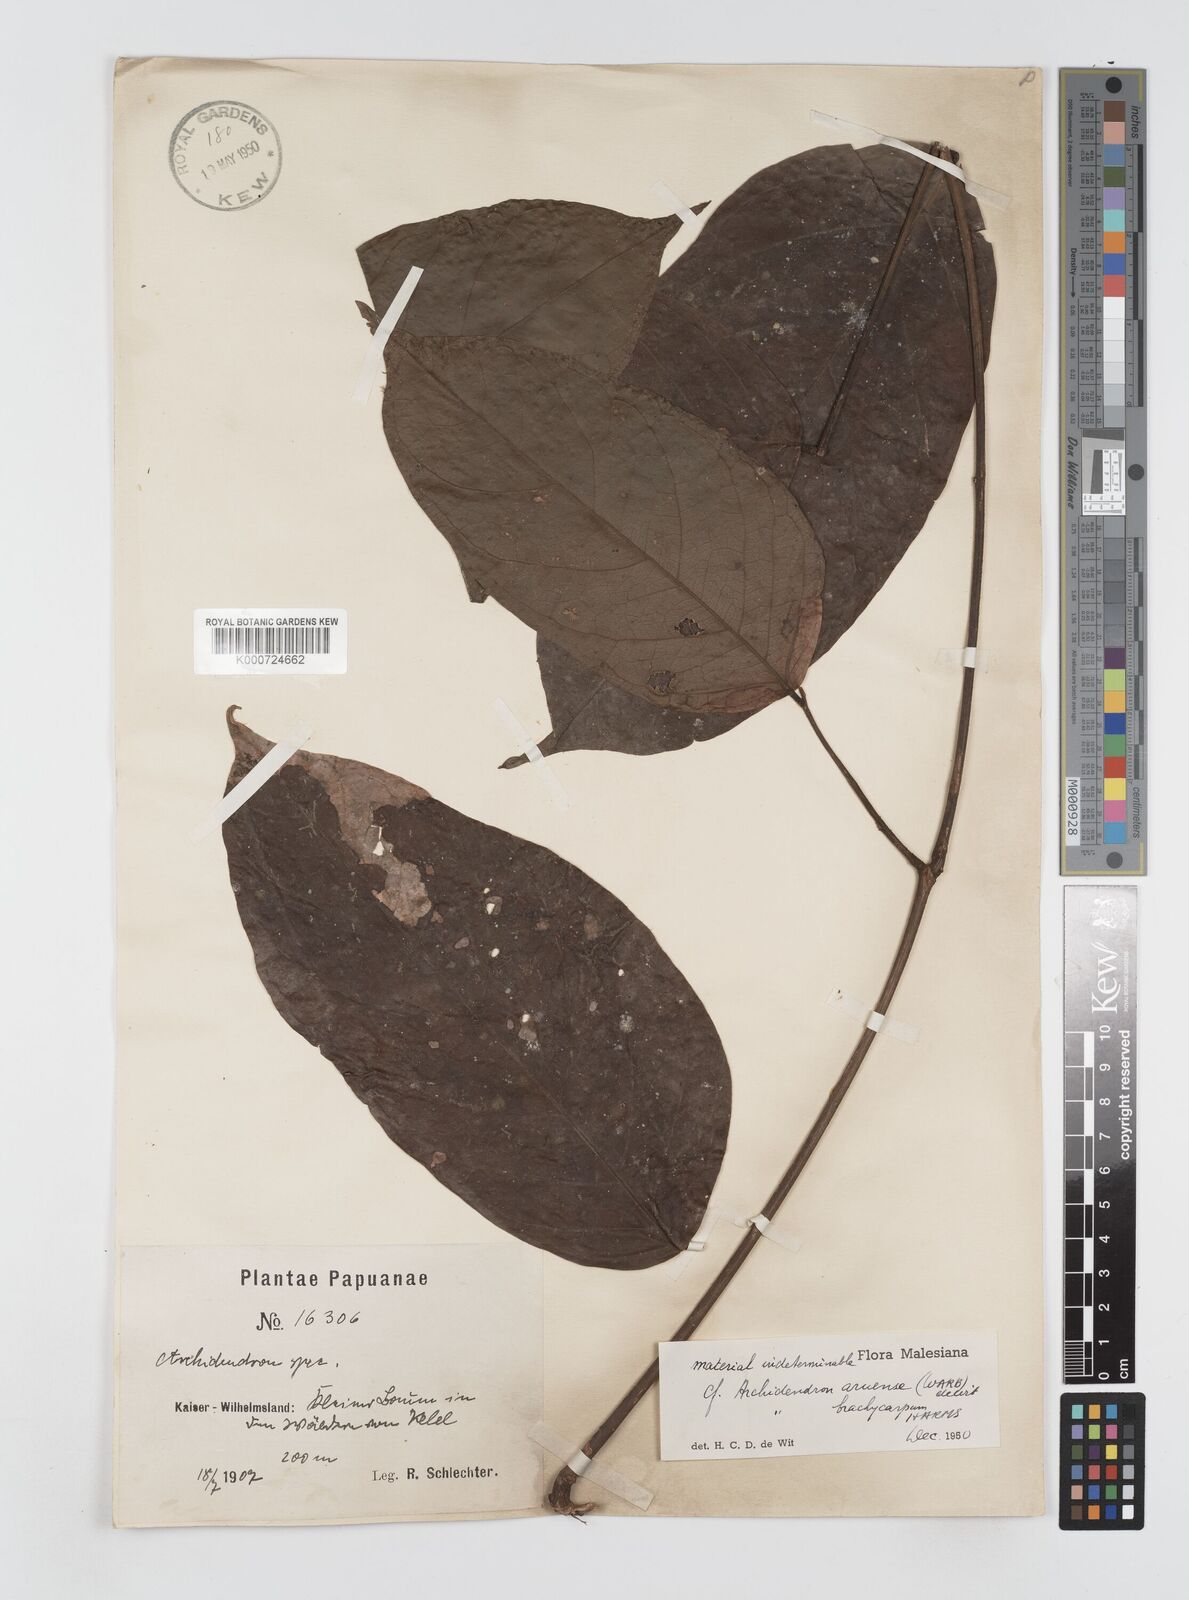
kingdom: Plantae
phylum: Tracheophyta
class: Magnoliopsida
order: Fabales
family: Fabaceae
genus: Archidendron
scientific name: Archidendron aruense
